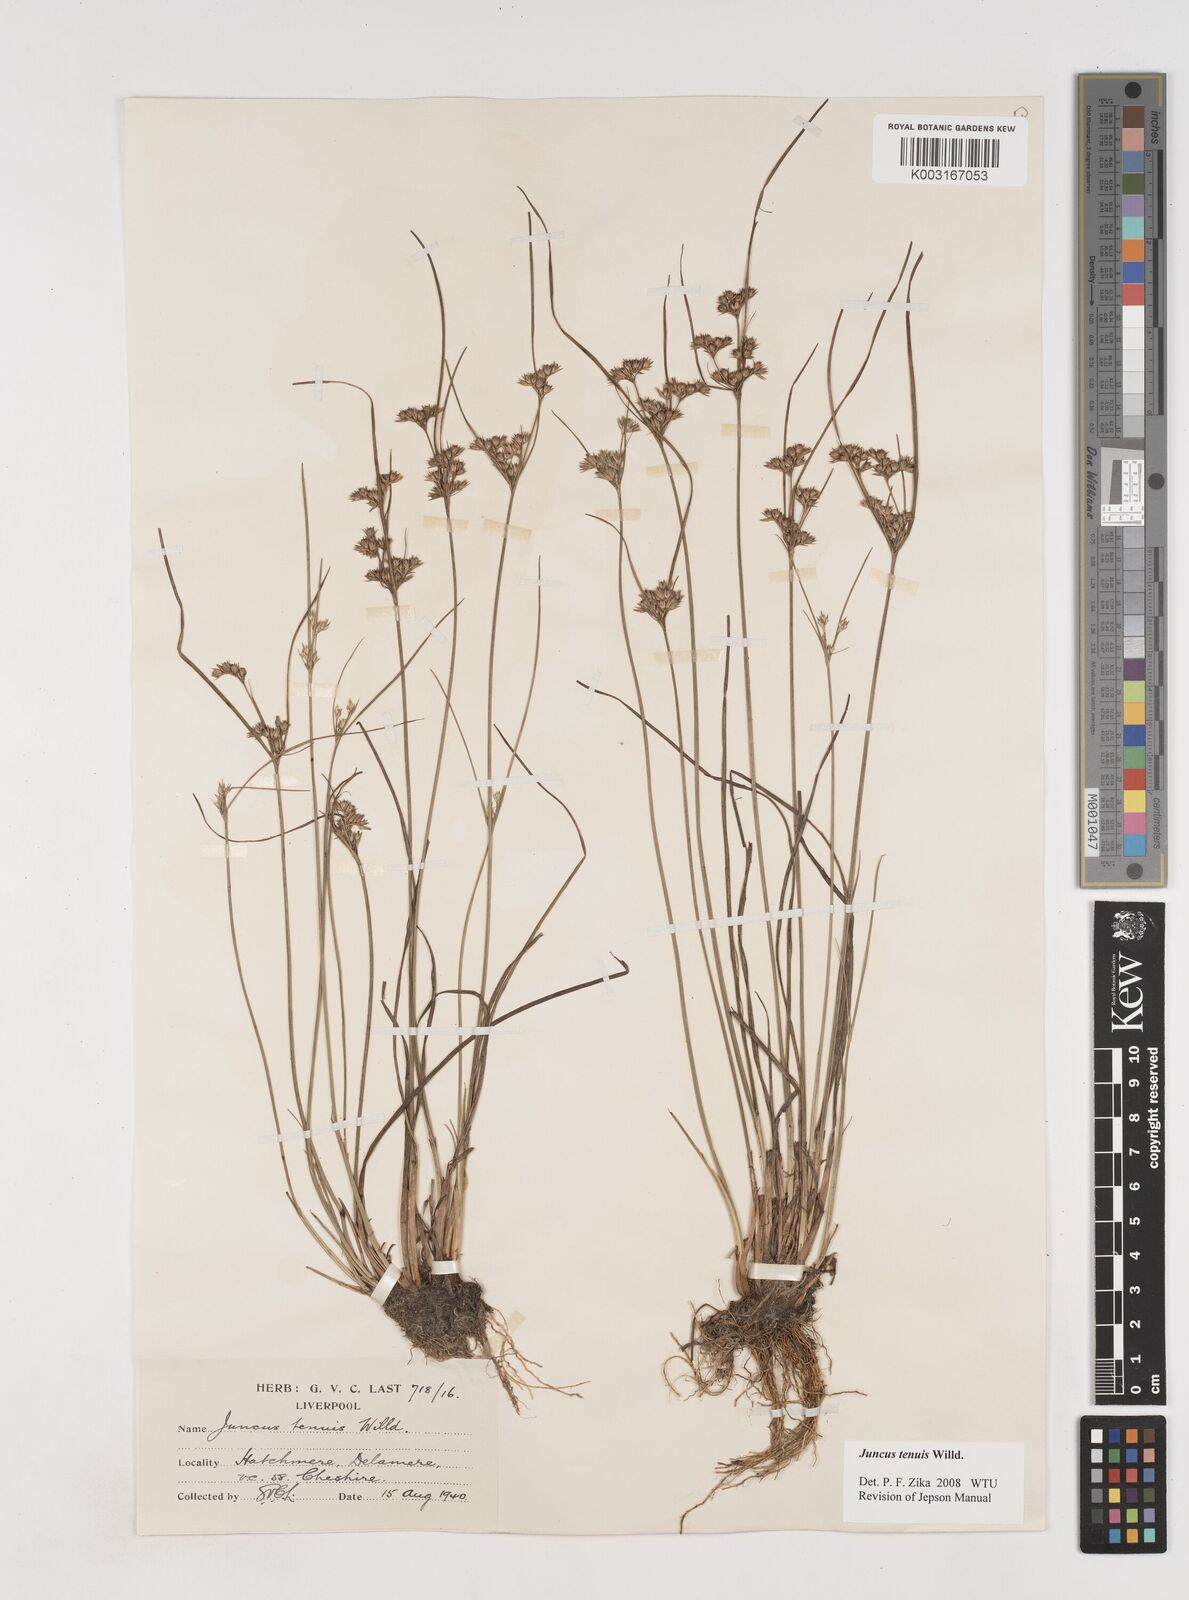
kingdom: Plantae
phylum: Tracheophyta
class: Liliopsida
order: Poales
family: Juncaceae
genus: Juncus
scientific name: Juncus tenuis
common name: Slender rush
